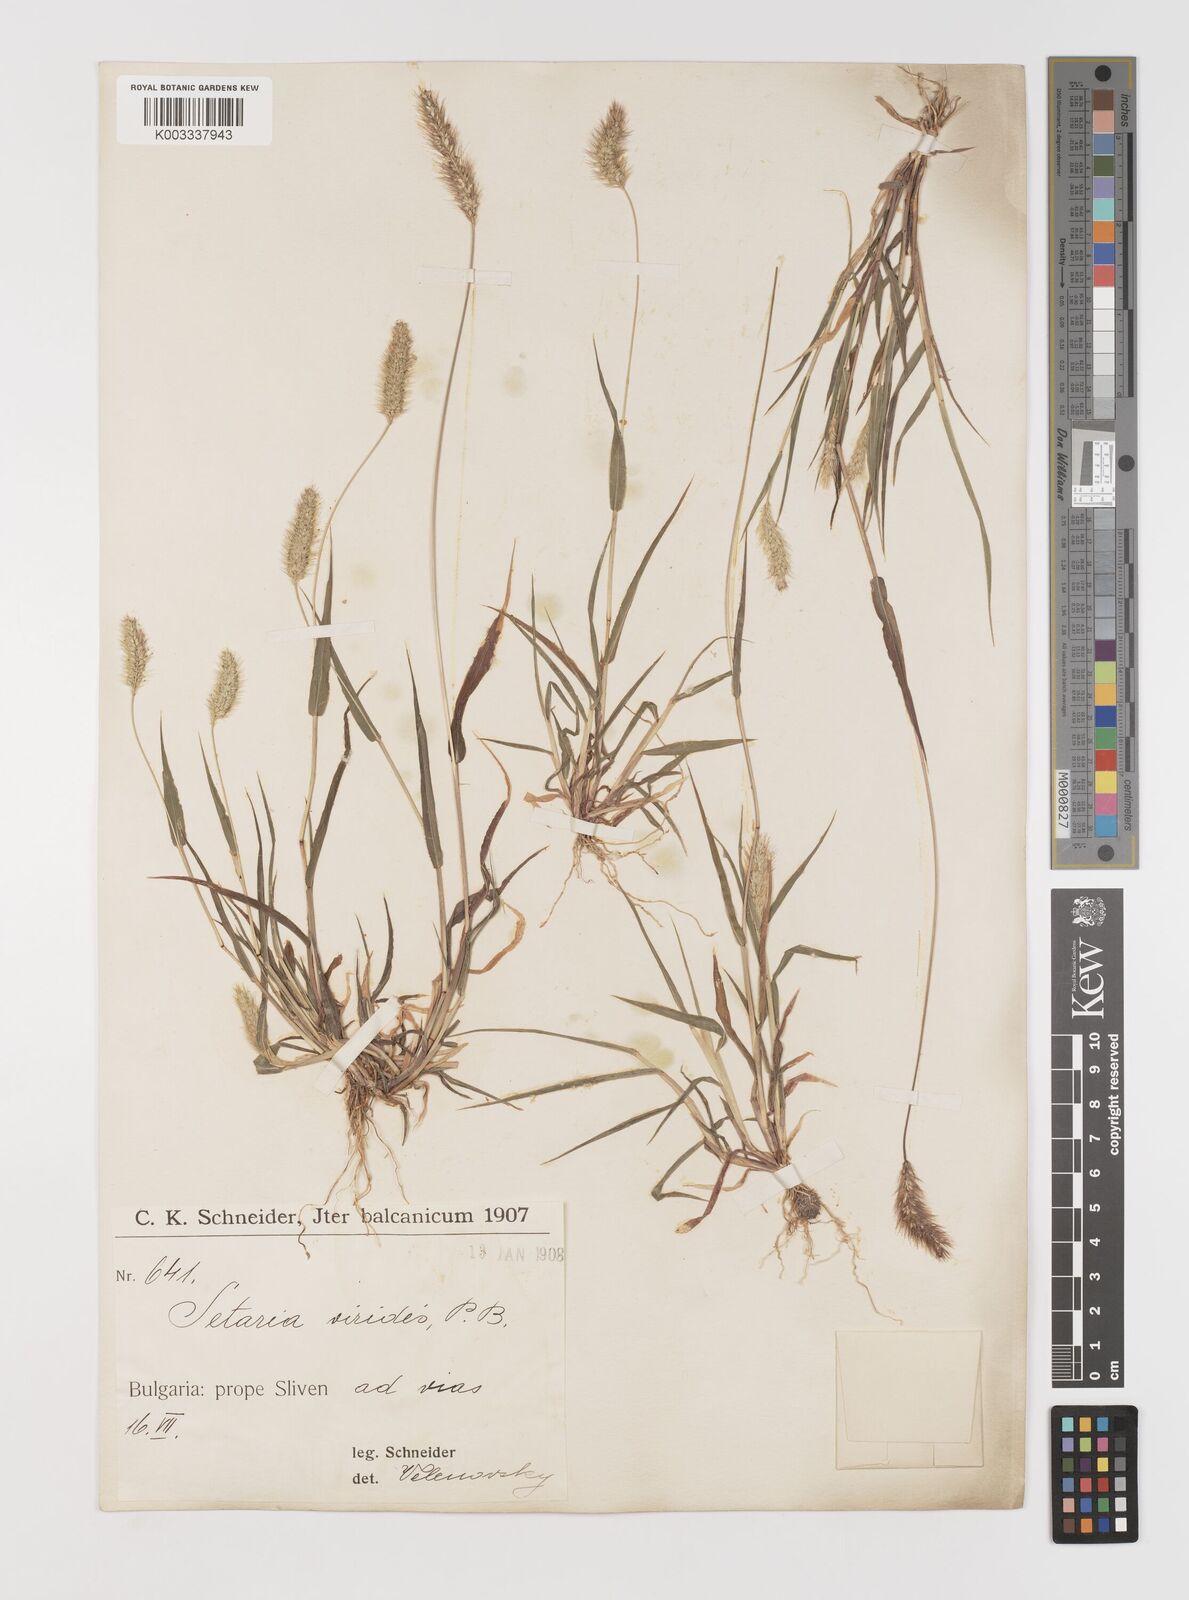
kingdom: Plantae
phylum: Tracheophyta
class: Liliopsida
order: Poales
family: Poaceae
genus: Setaria
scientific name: Setaria viridis
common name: Green bristlegrass
